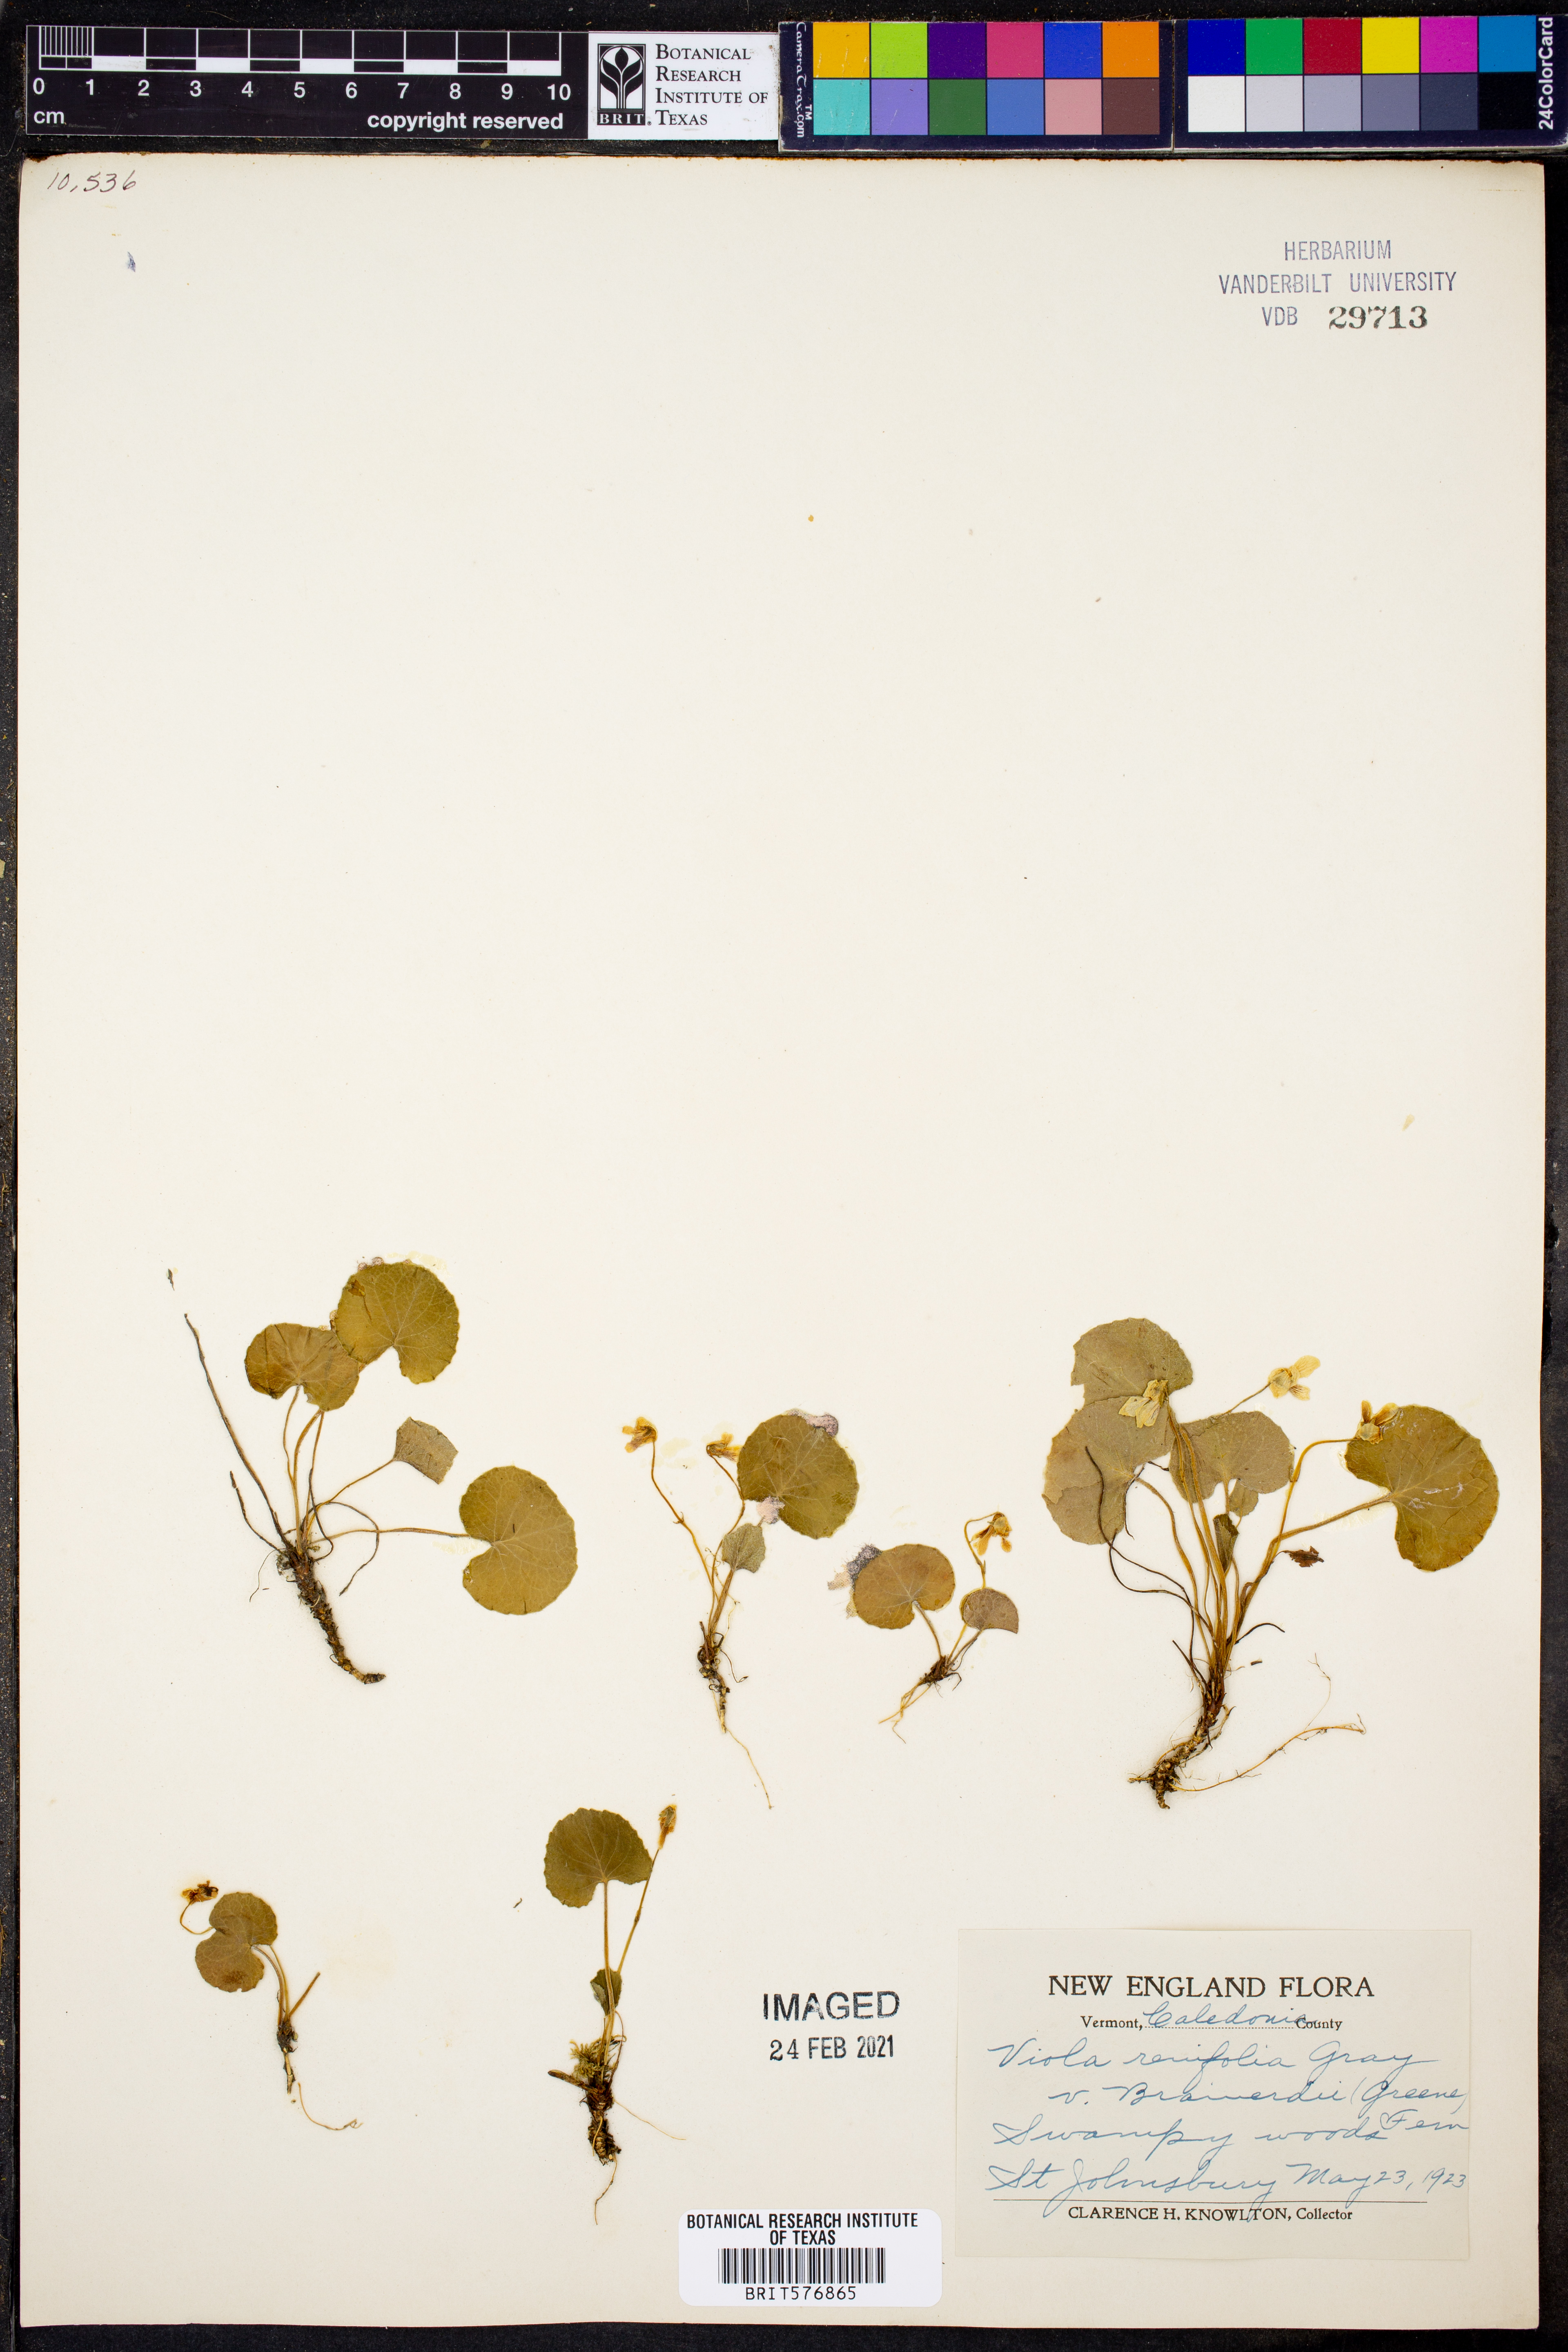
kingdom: Plantae
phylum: Tracheophyta
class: Magnoliopsida
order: Malpighiales
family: Violaceae
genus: Viola
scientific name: Viola renifolia
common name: Kidney-leaf violet
